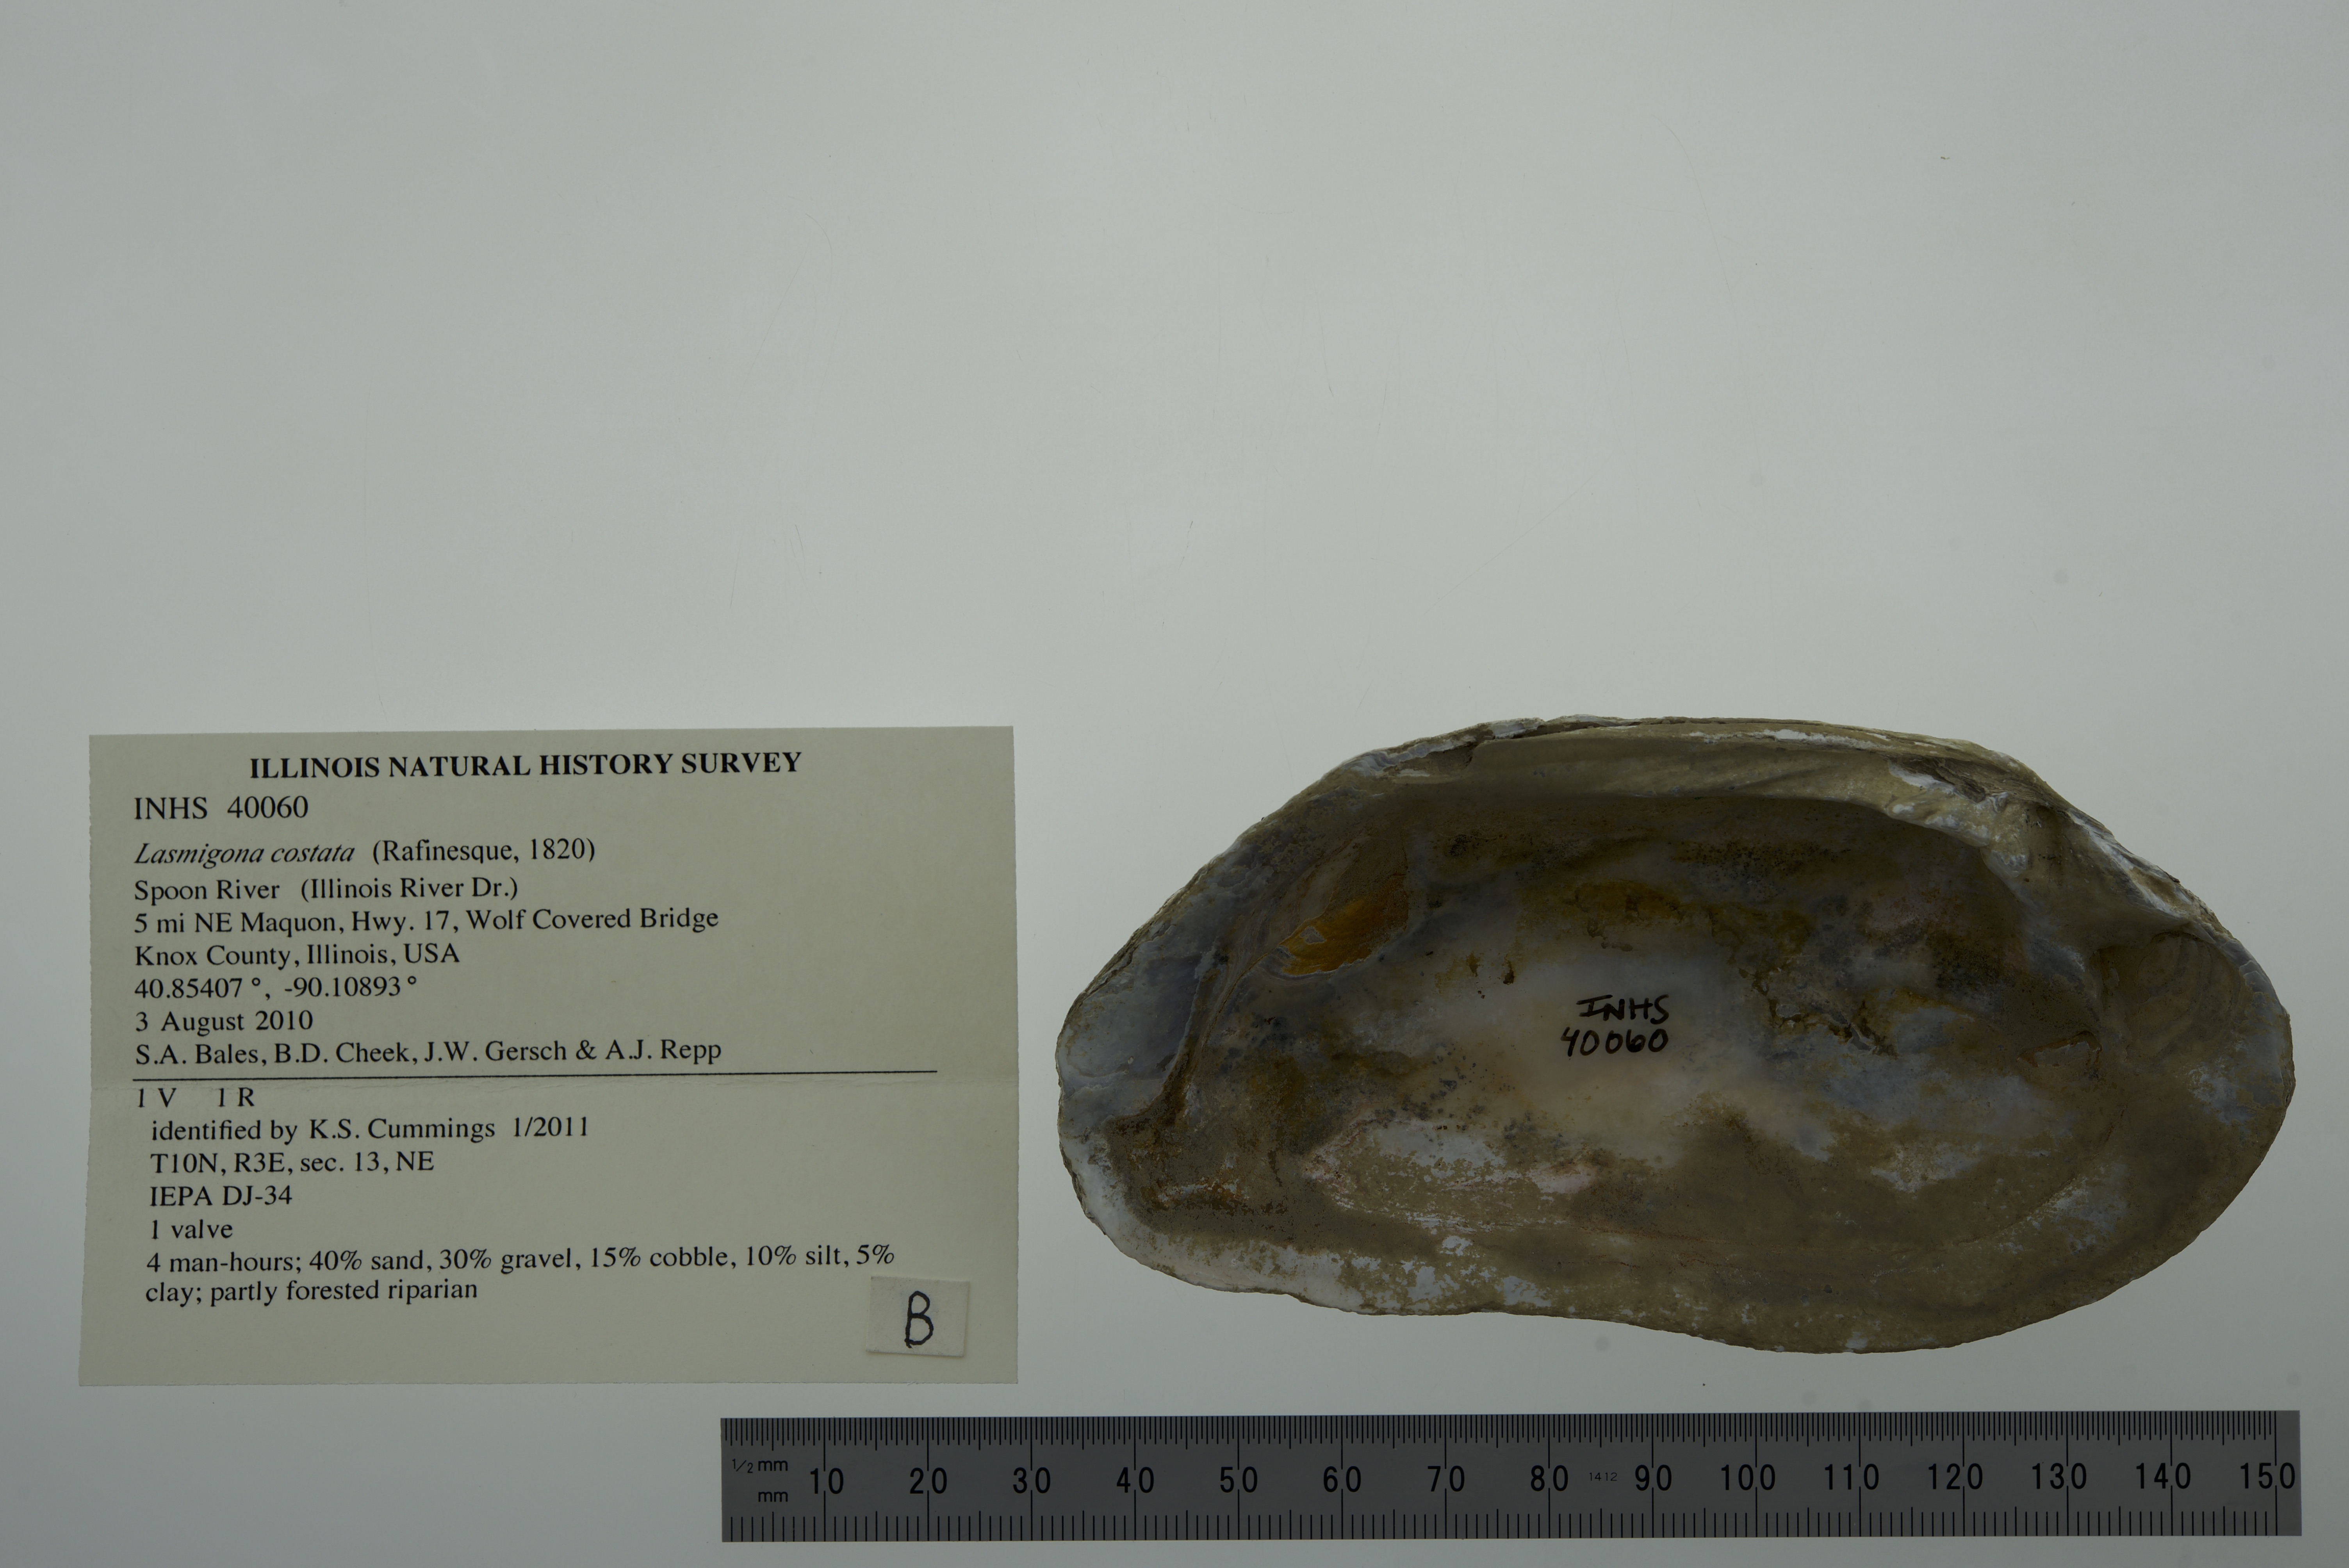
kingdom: Animalia
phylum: Mollusca
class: Bivalvia
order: Unionida
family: Unionidae
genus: Lasmigona
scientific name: Lasmigona costata
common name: Flutedshell
